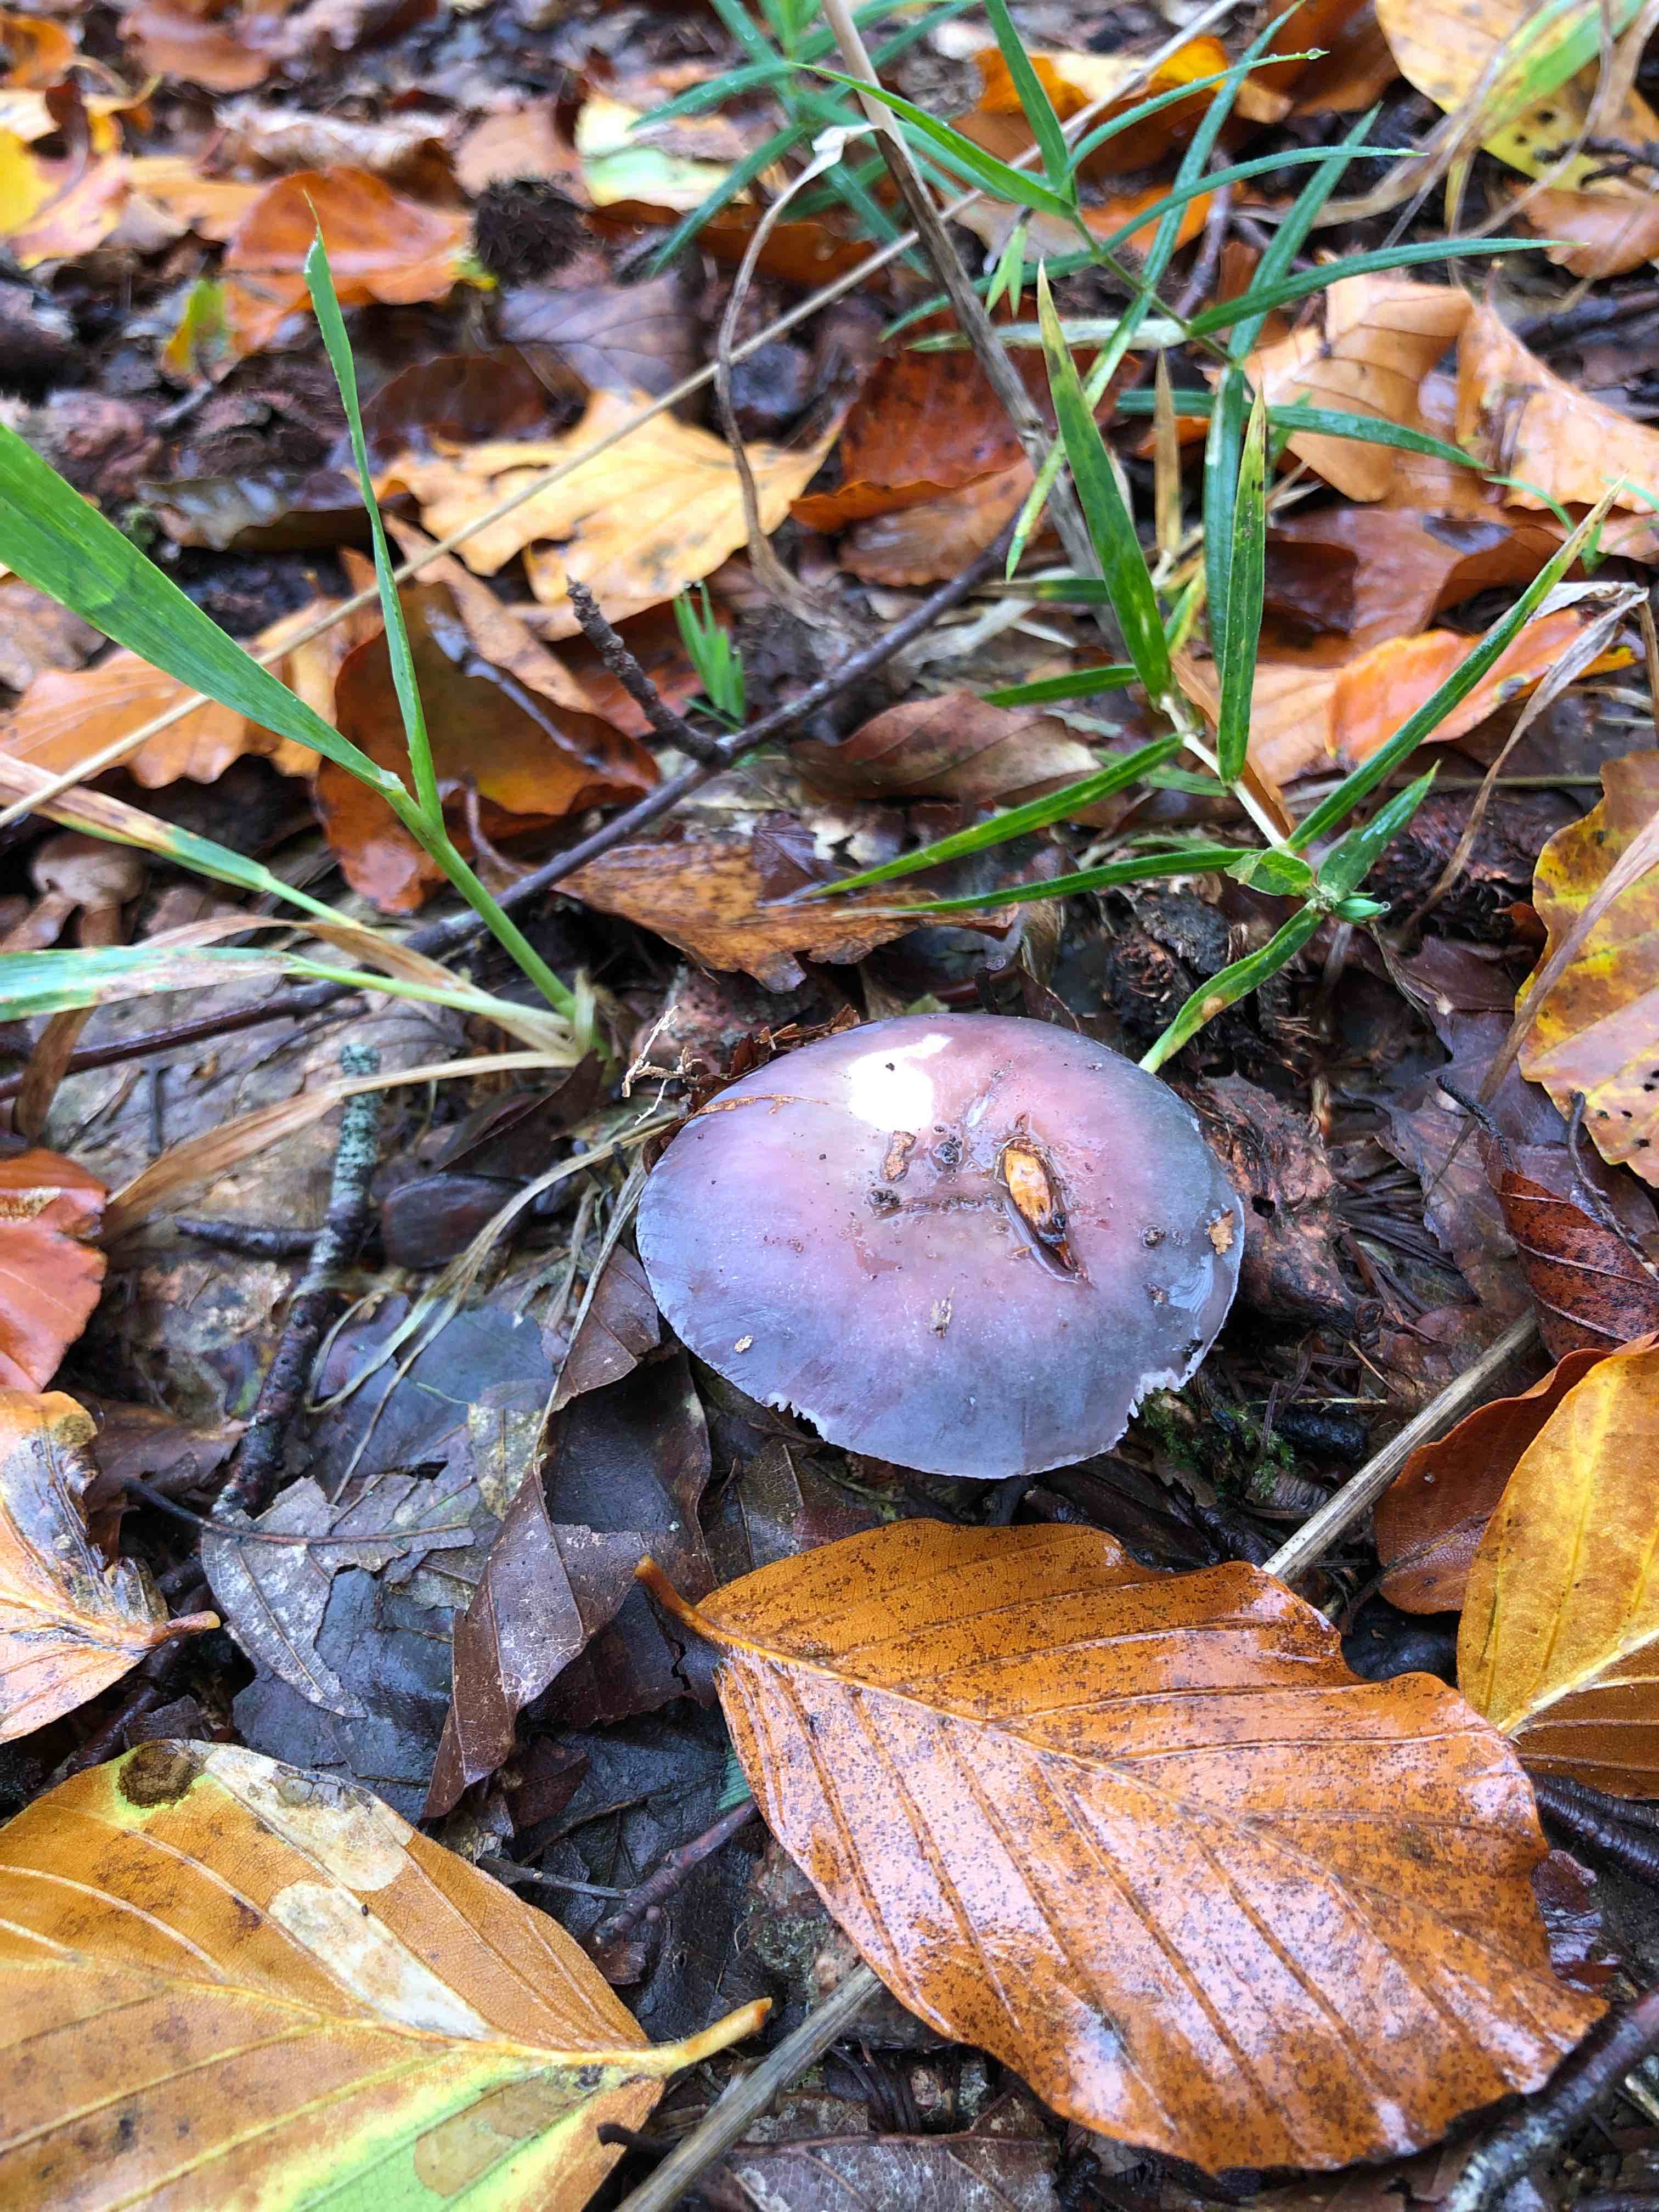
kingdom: Fungi
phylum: Basidiomycota
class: Agaricomycetes
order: Russulales
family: Russulaceae
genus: Russula
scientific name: Russula
